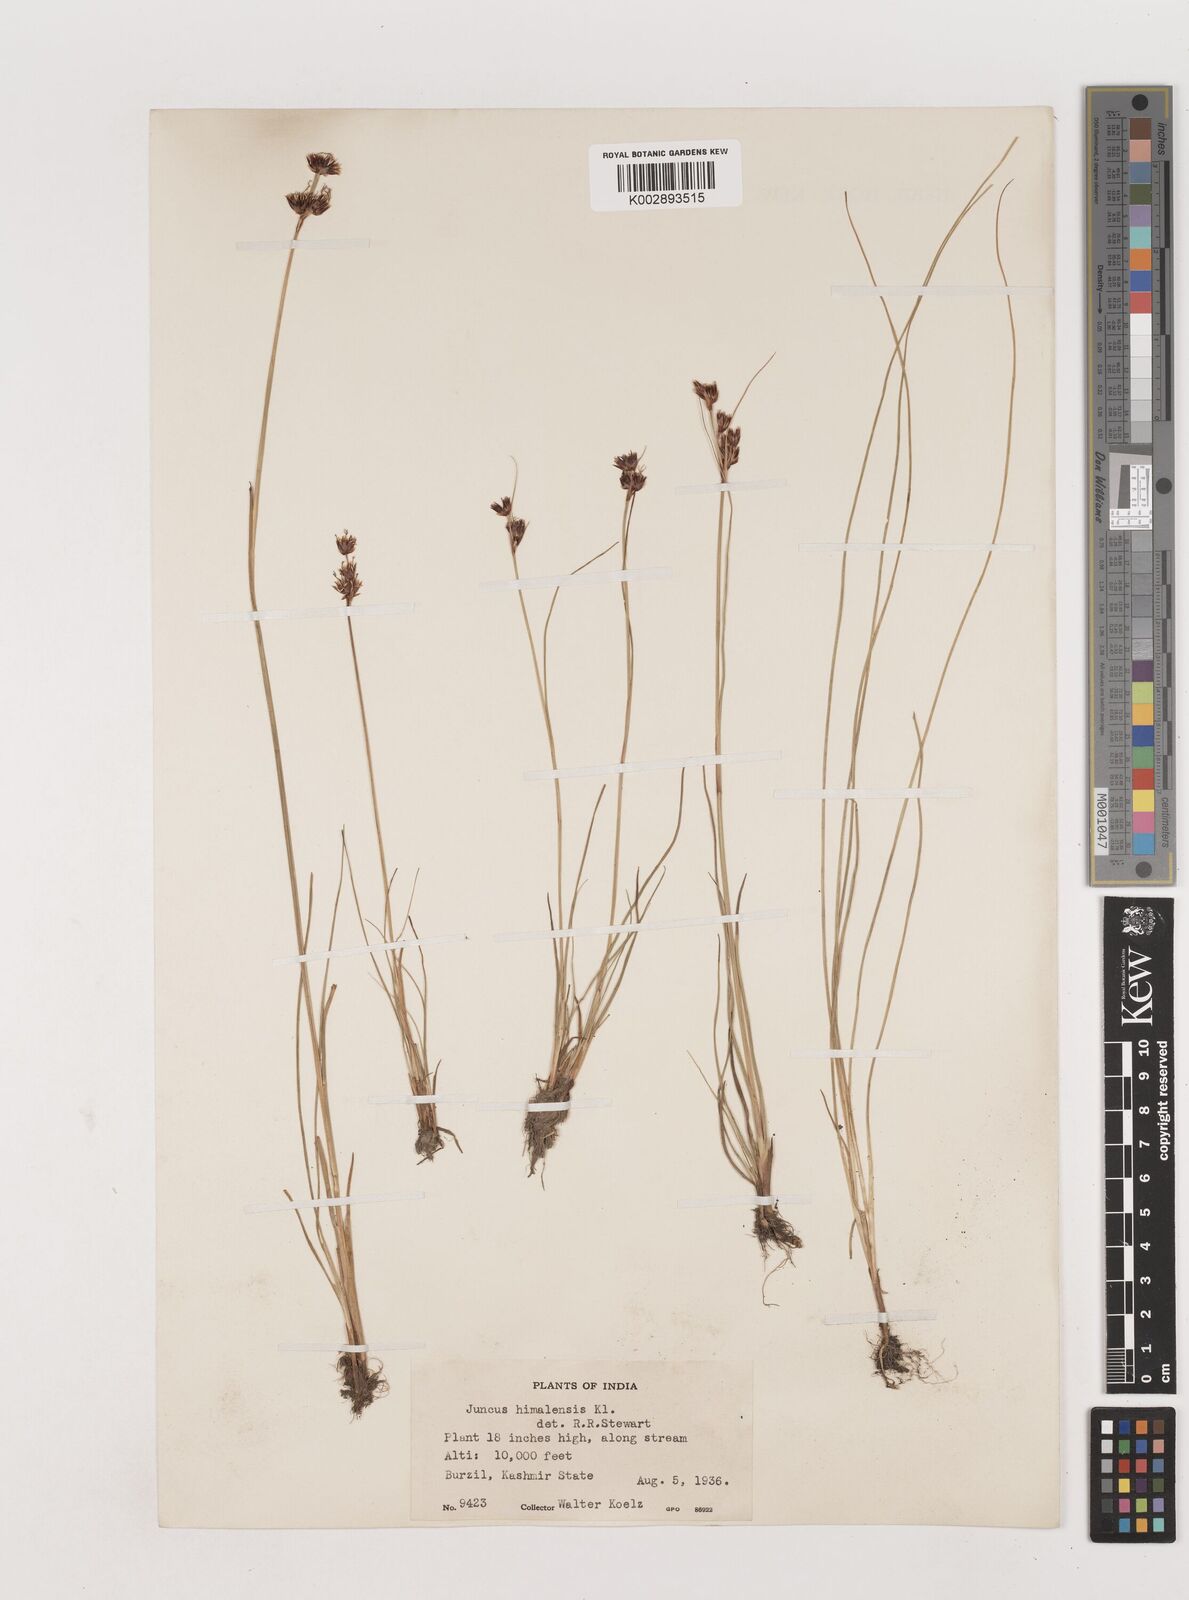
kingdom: Plantae
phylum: Tracheophyta
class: Liliopsida
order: Poales
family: Juncaceae
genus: Juncus
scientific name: Juncus himalensis
